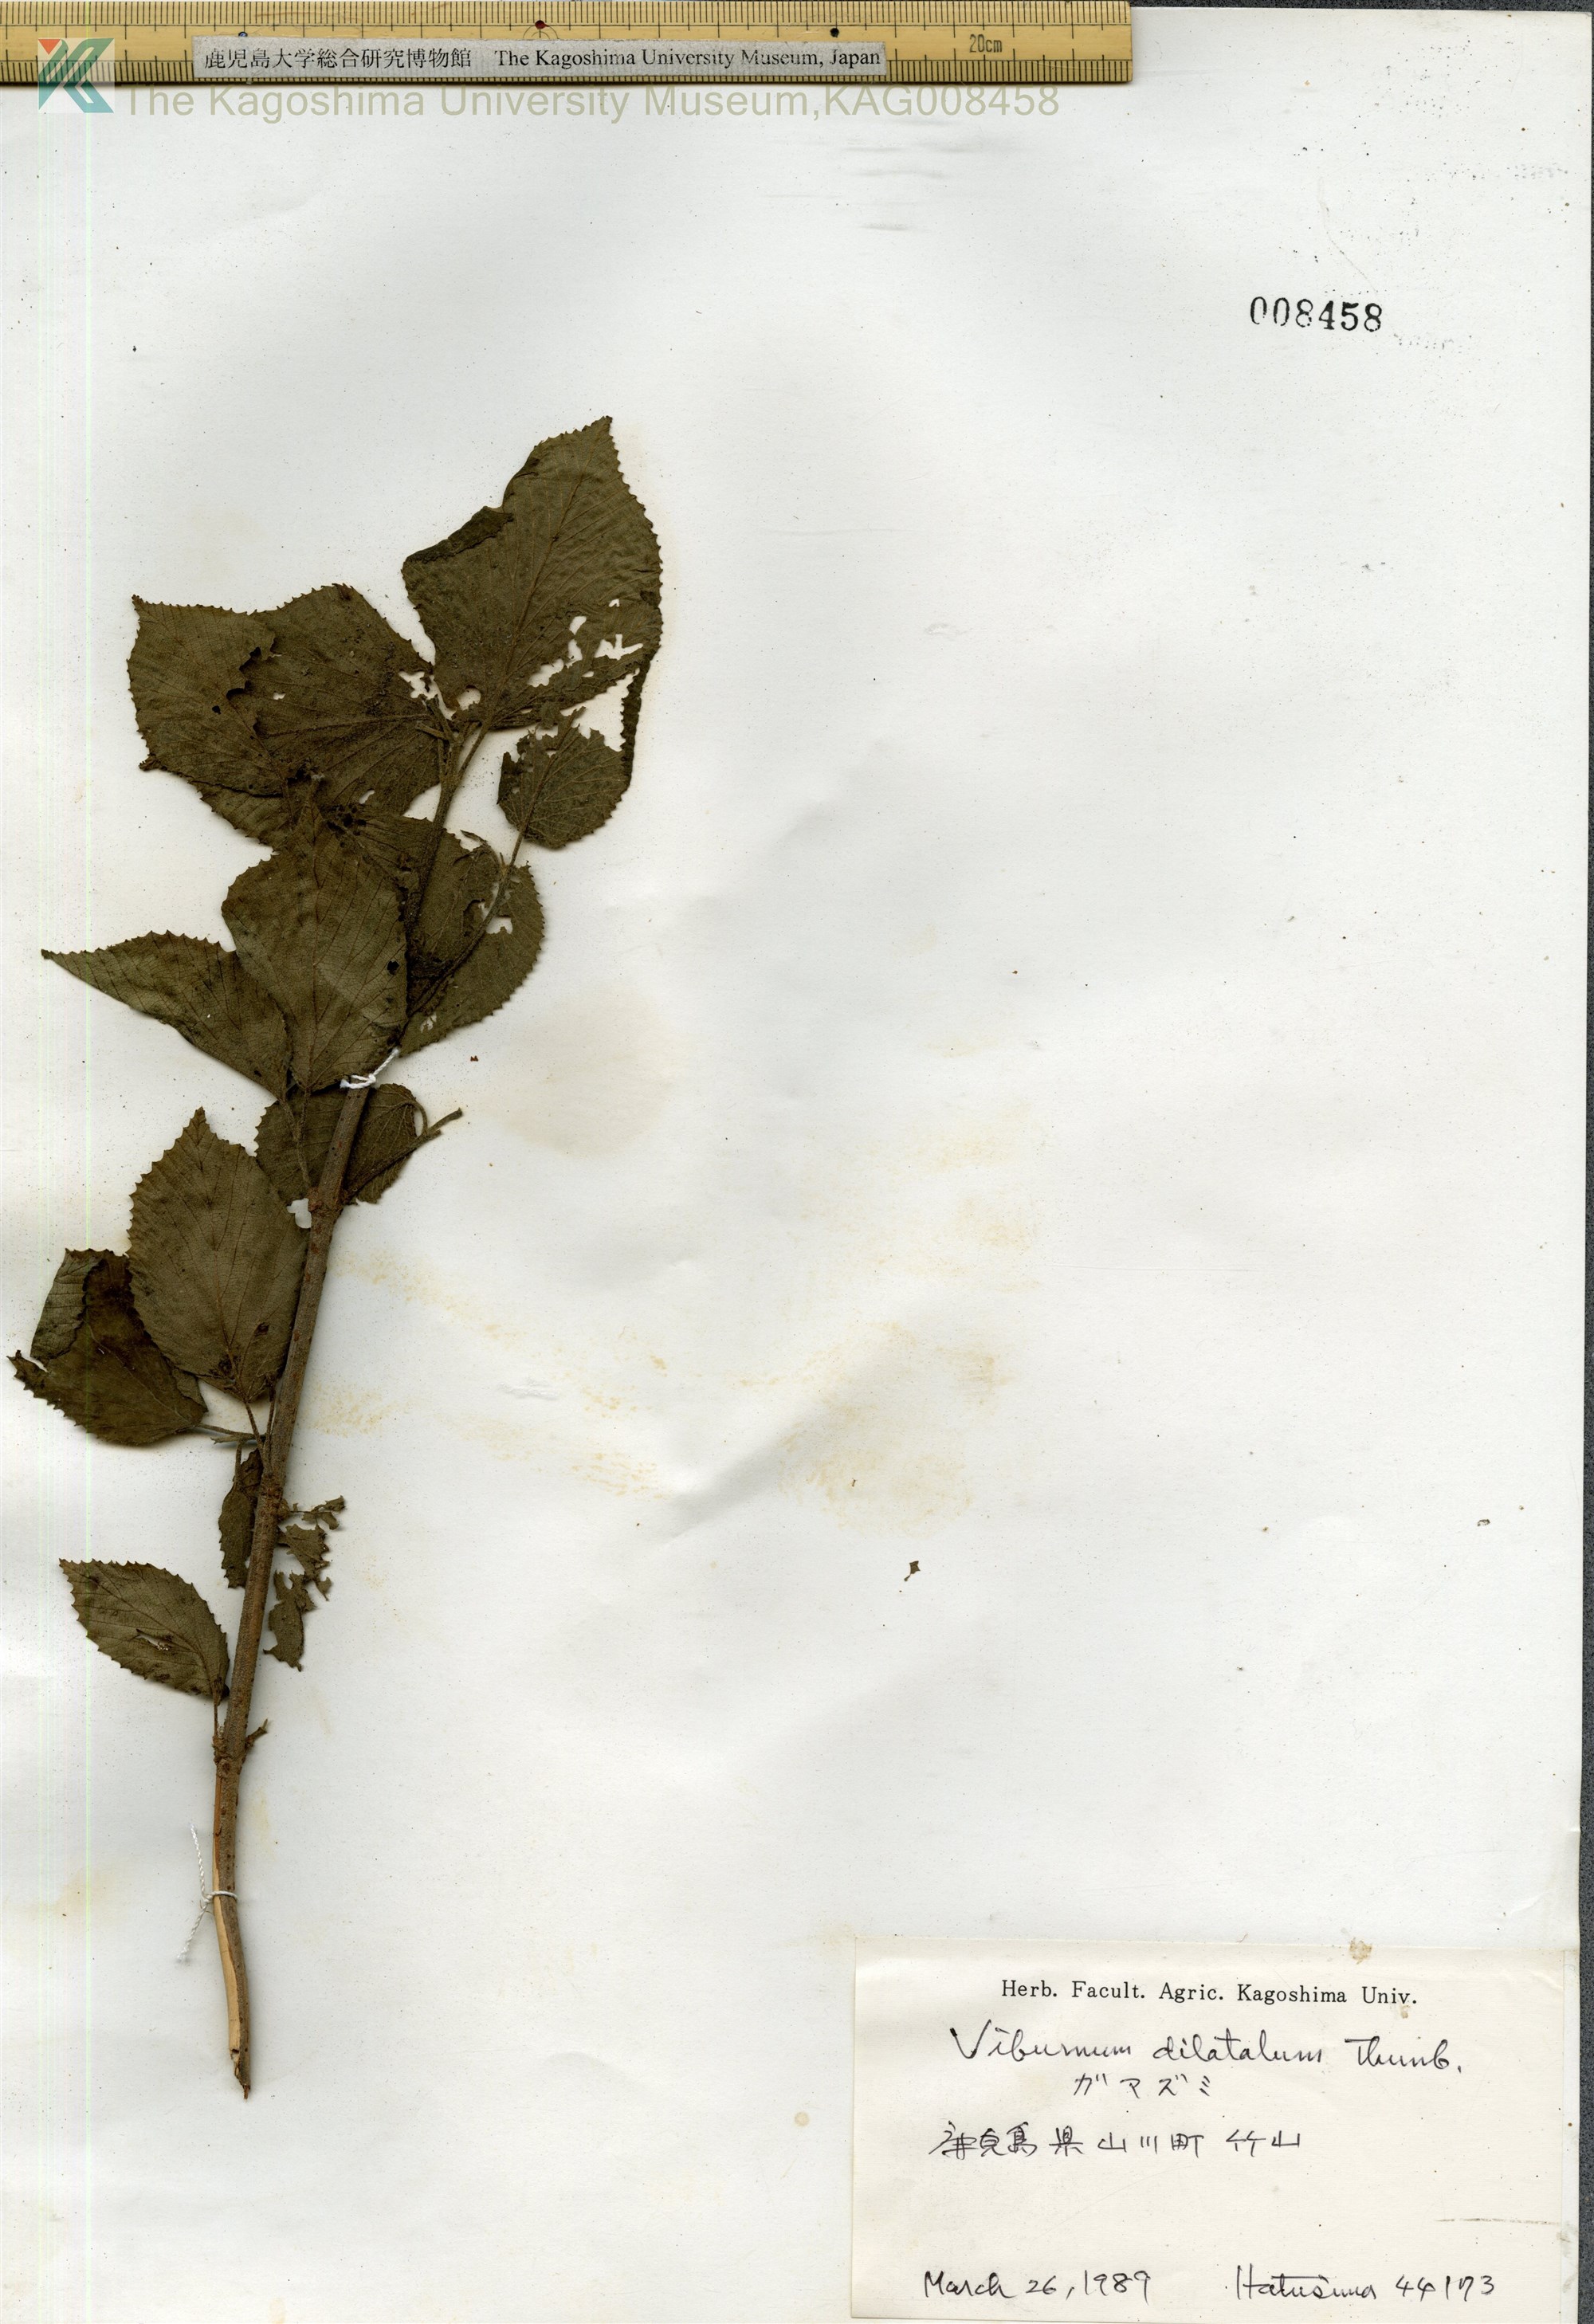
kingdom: Plantae
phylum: Tracheophyta
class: Magnoliopsida
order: Dipsacales
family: Viburnaceae
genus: Viburnum
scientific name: Viburnum dilatatum
